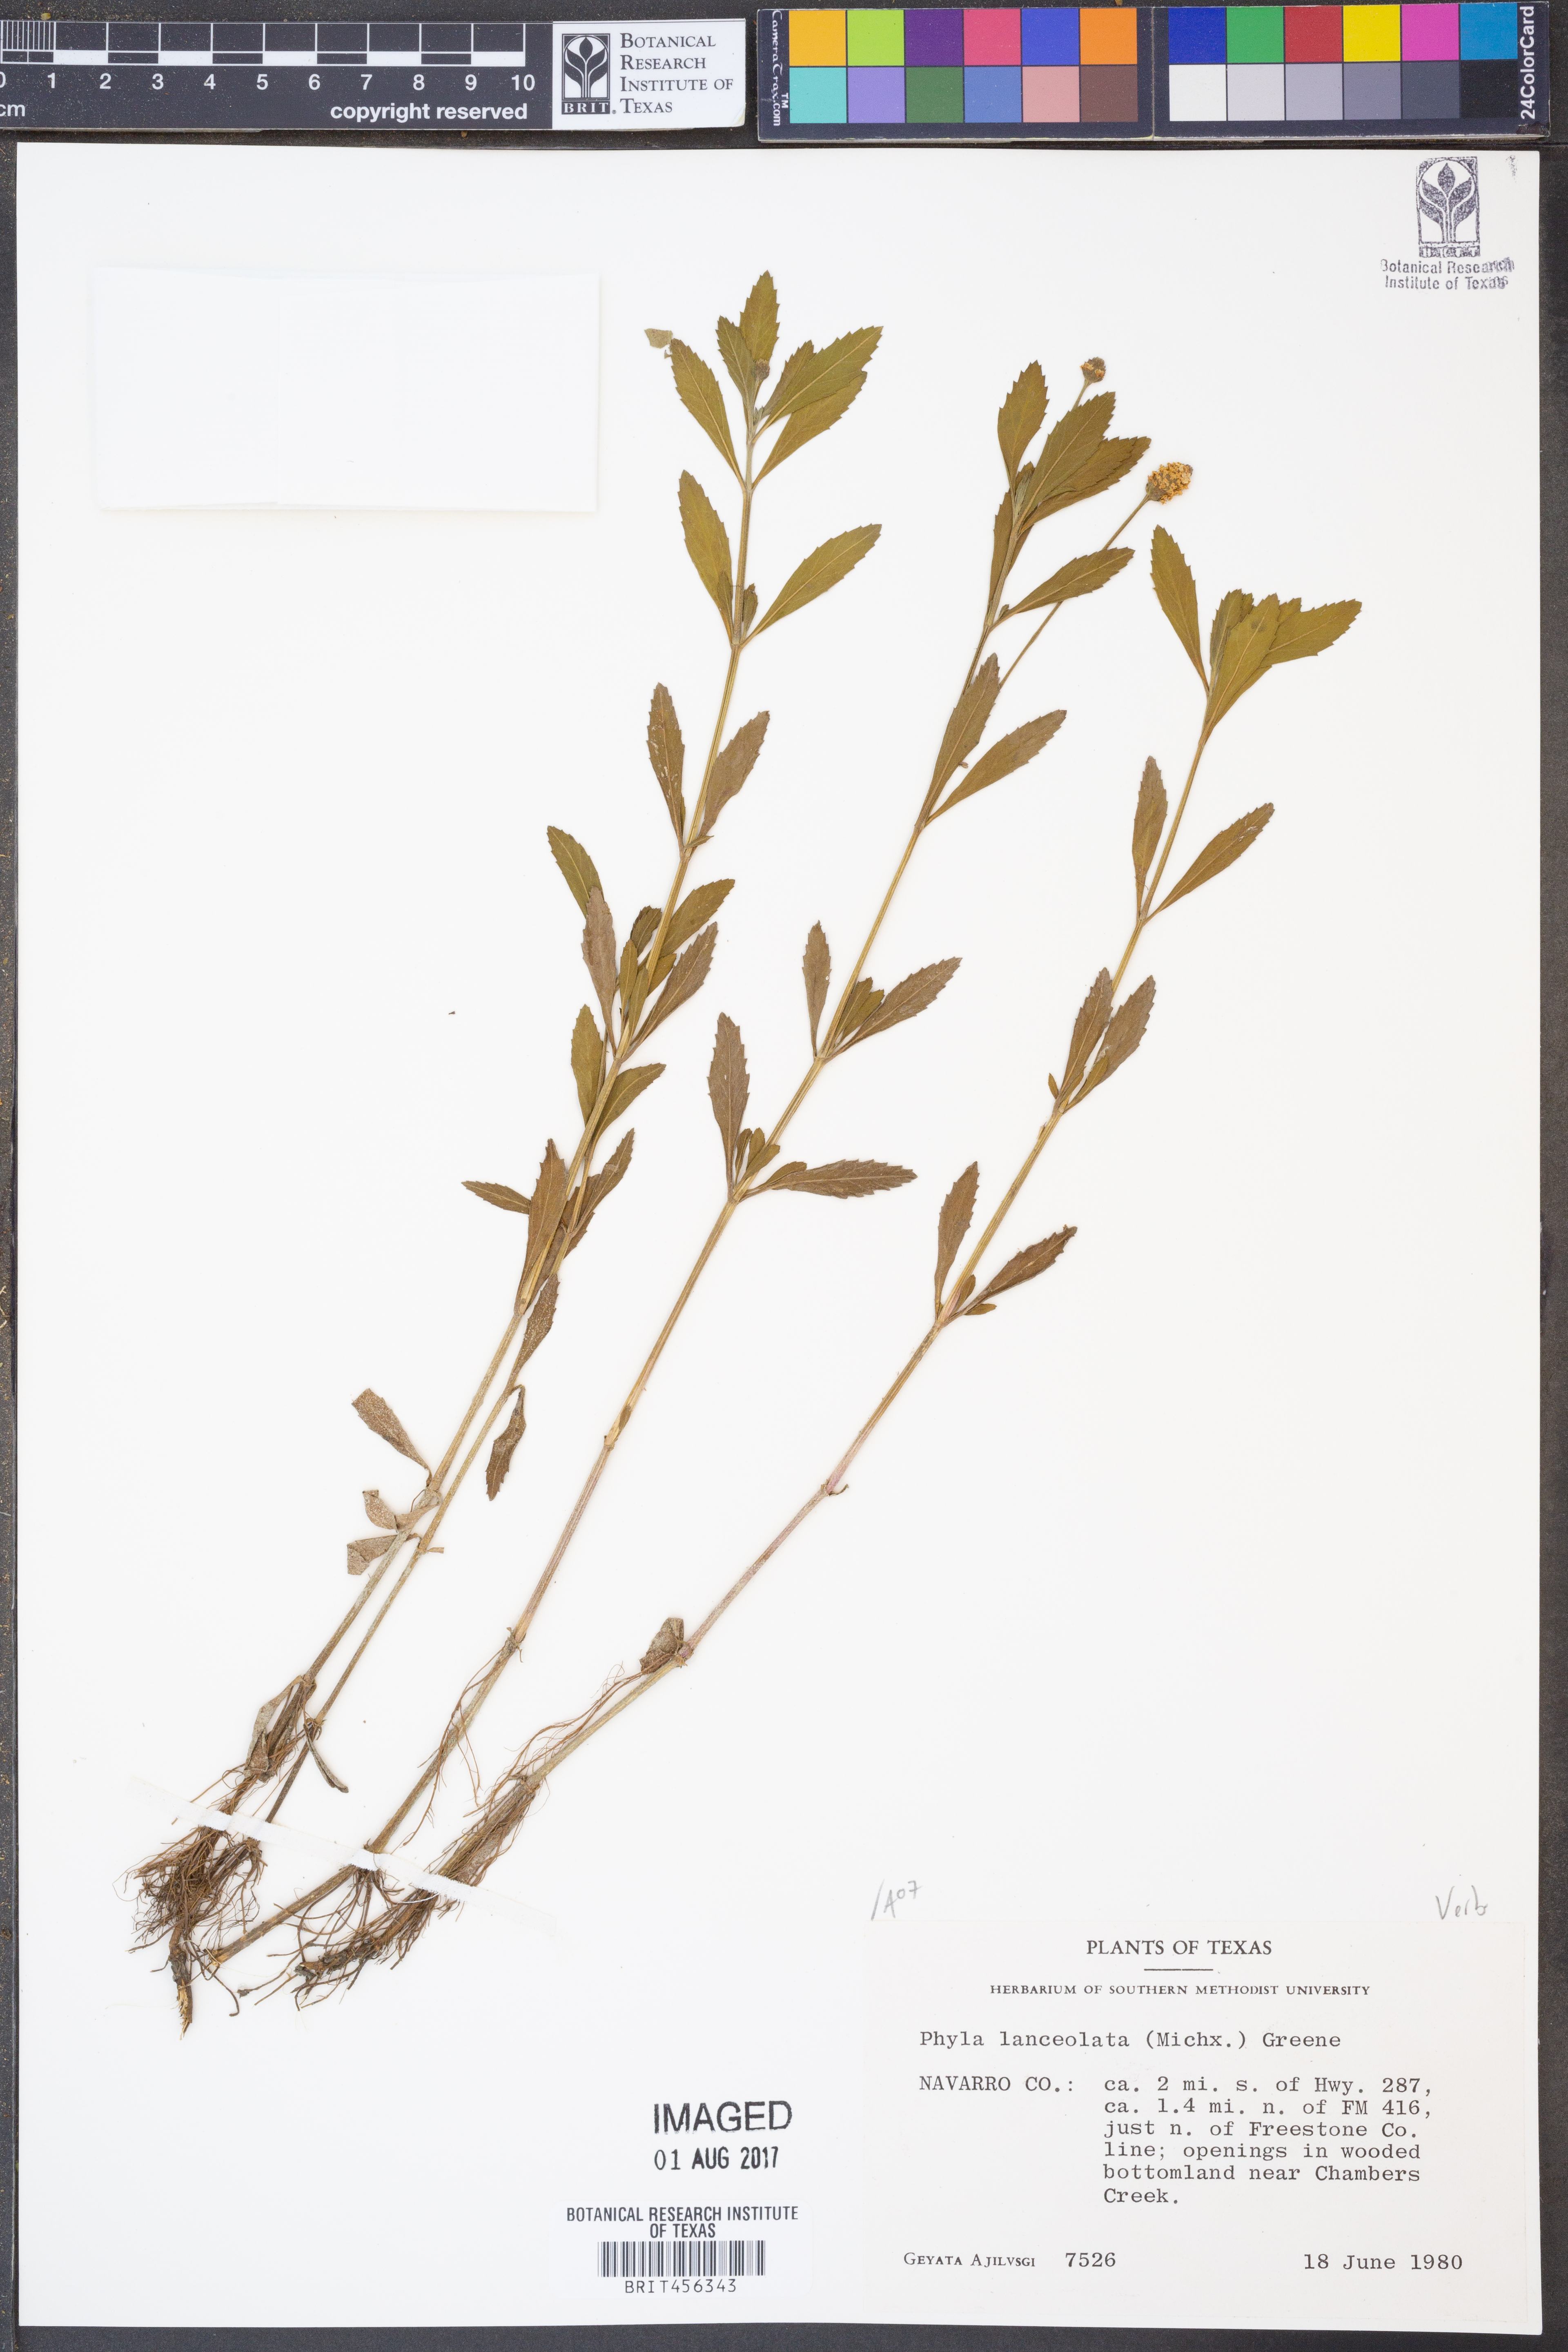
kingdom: Plantae
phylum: Tracheophyta
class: Magnoliopsida
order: Lamiales
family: Verbenaceae
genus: Phyla
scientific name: Phyla lanceolata
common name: Northern fogfruit
